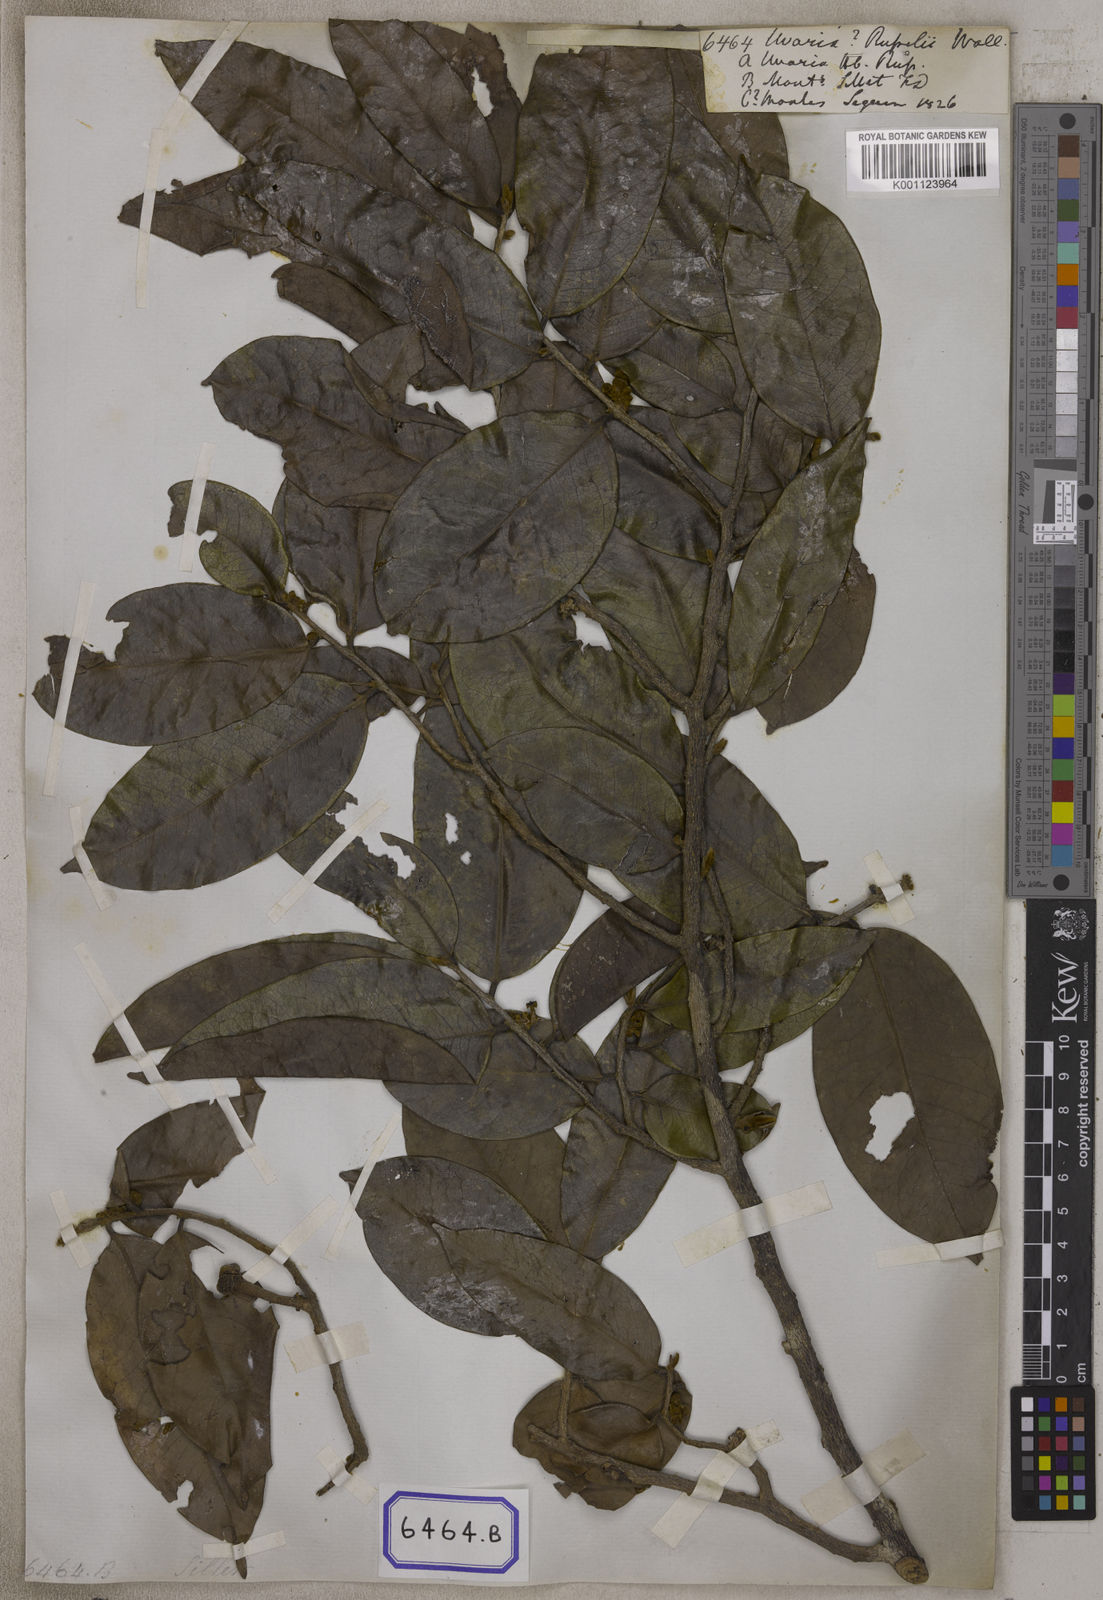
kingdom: Plantae
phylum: Tracheophyta
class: Magnoliopsida
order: Magnoliales
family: Annonaceae
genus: Alphonsea
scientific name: Alphonsea lutea
